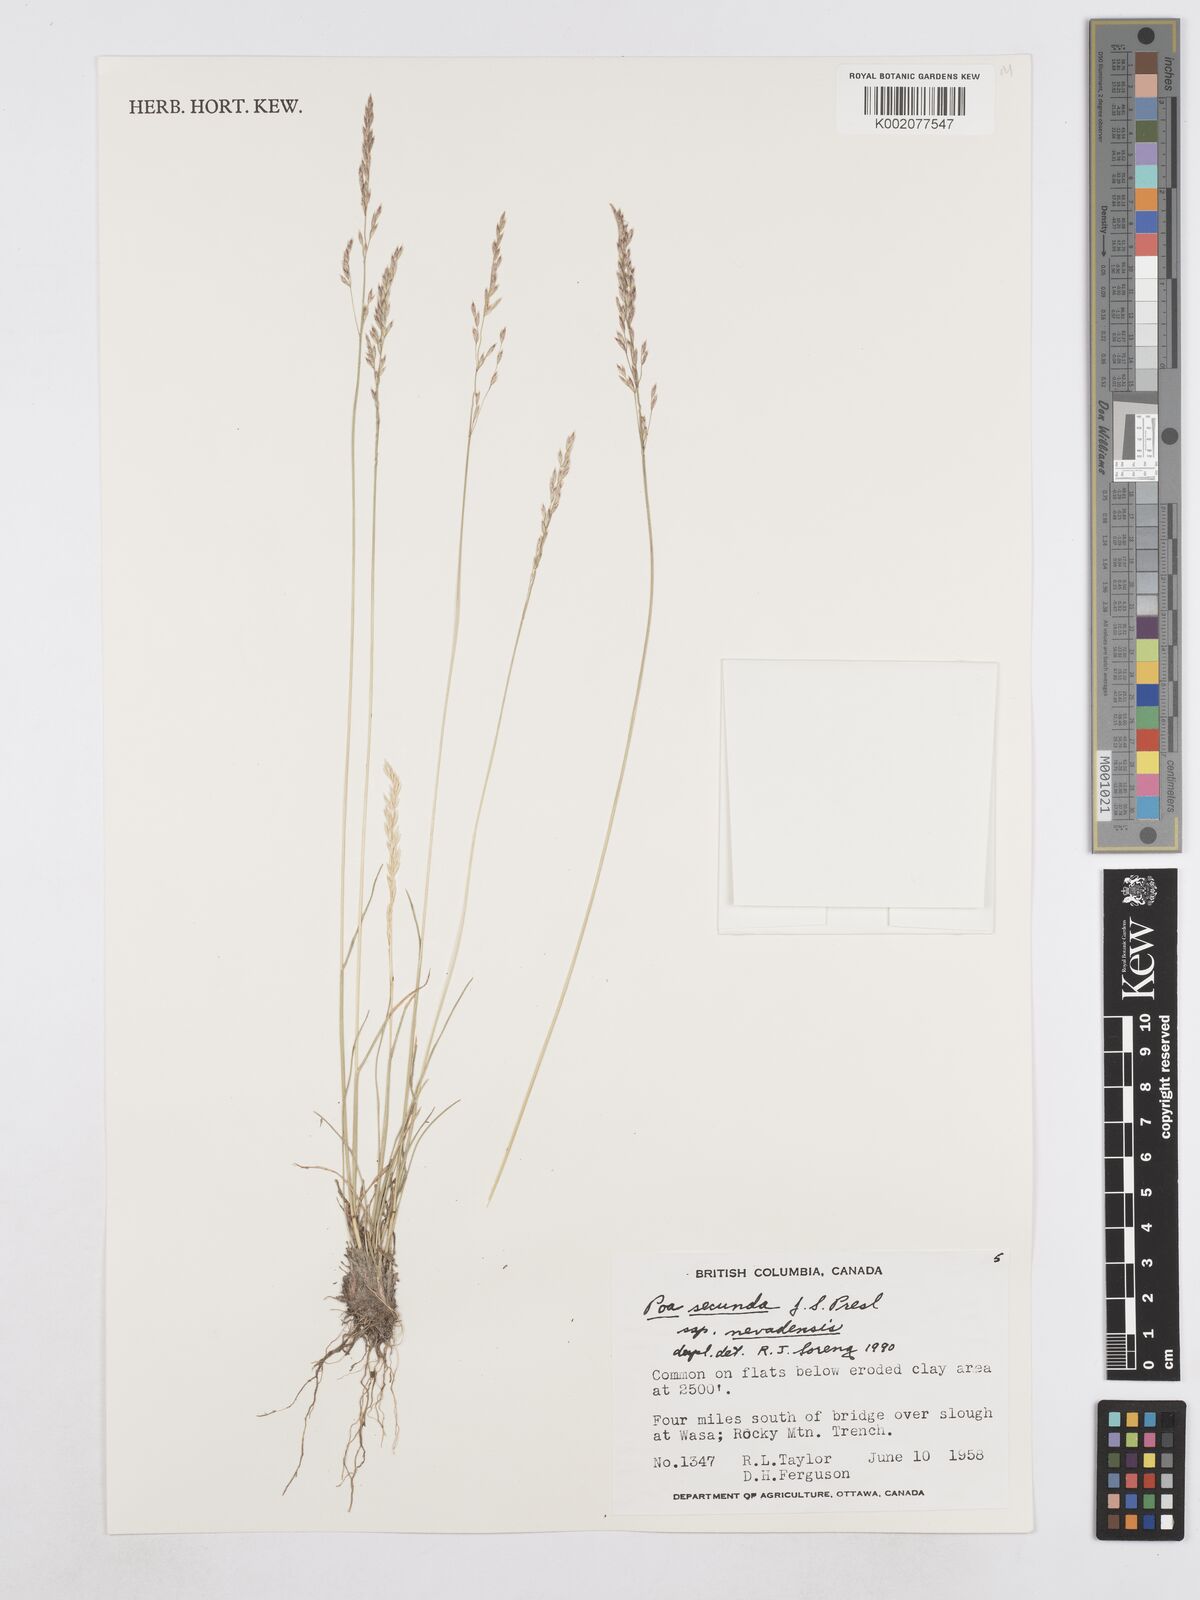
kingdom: Plantae
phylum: Tracheophyta
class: Liliopsida
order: Poales
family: Poaceae
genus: Poa
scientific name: Poa secunda
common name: Sandberg bluegrass
